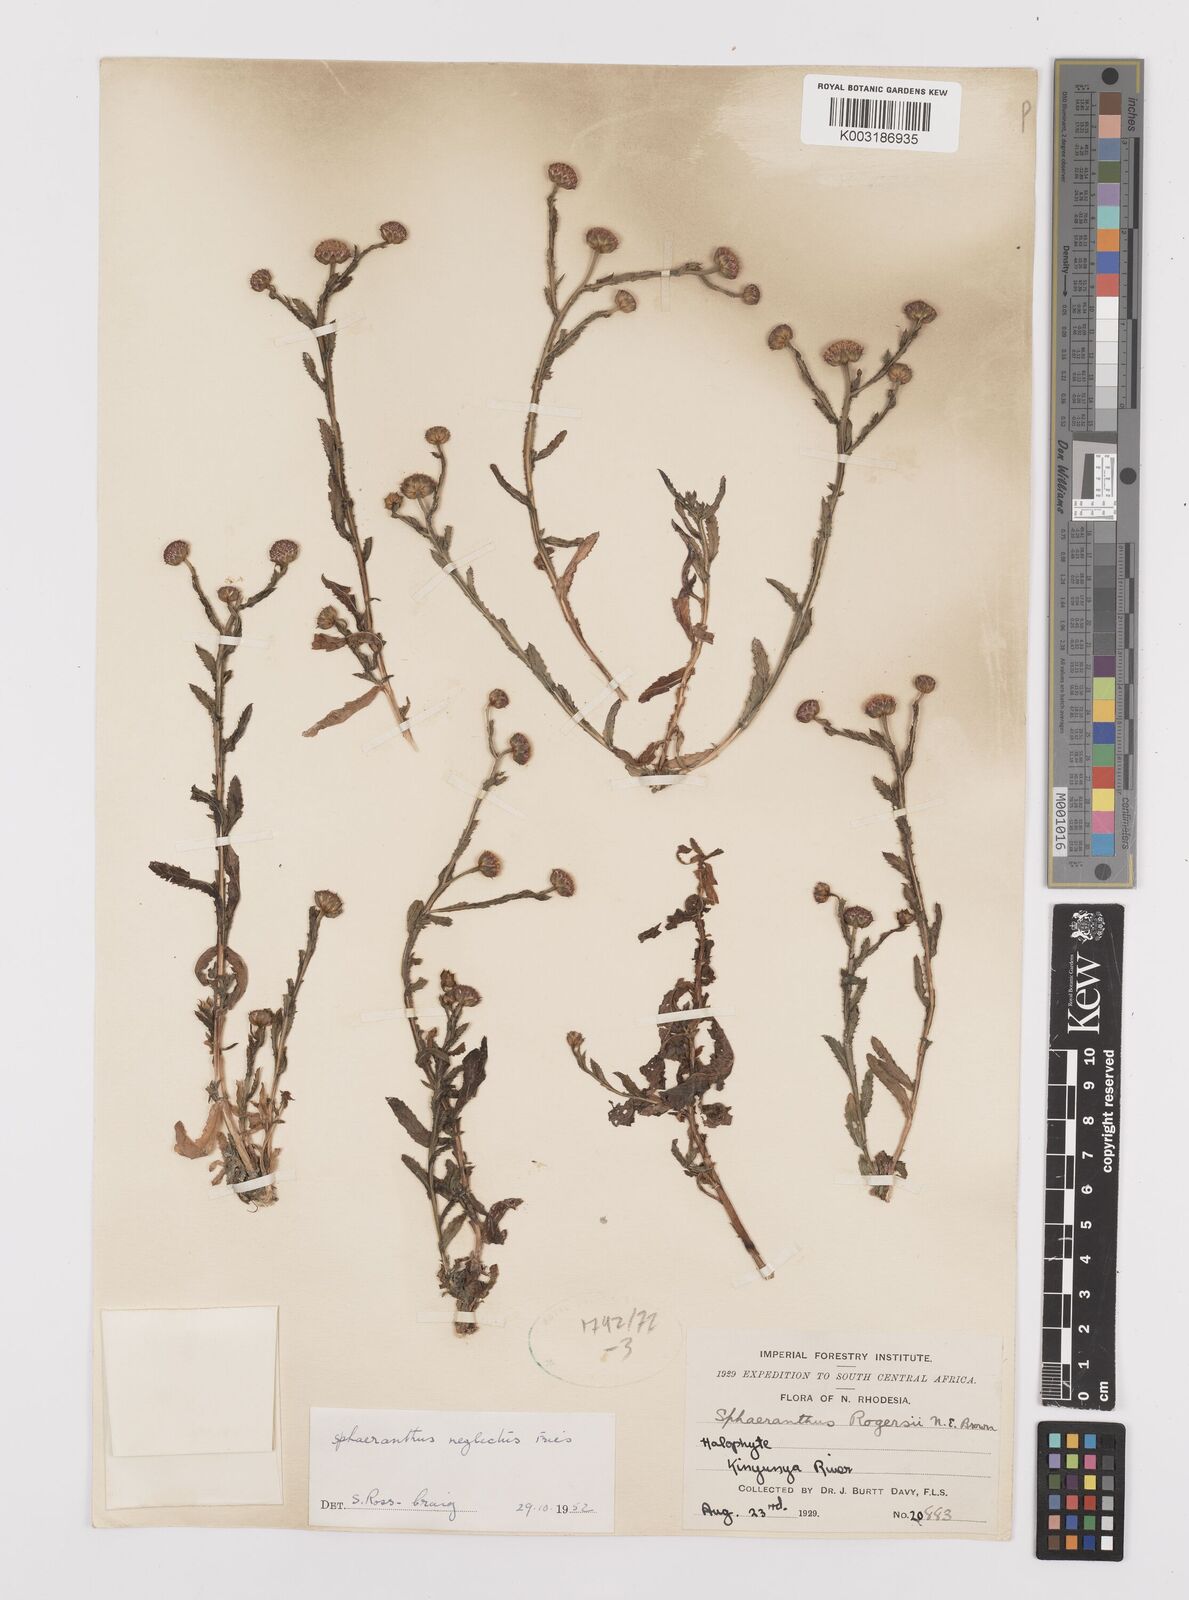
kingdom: Plantae
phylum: Tracheophyta
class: Magnoliopsida
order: Asterales
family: Asteraceae
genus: Sphaeranthus
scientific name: Sphaeranthus neglectus
